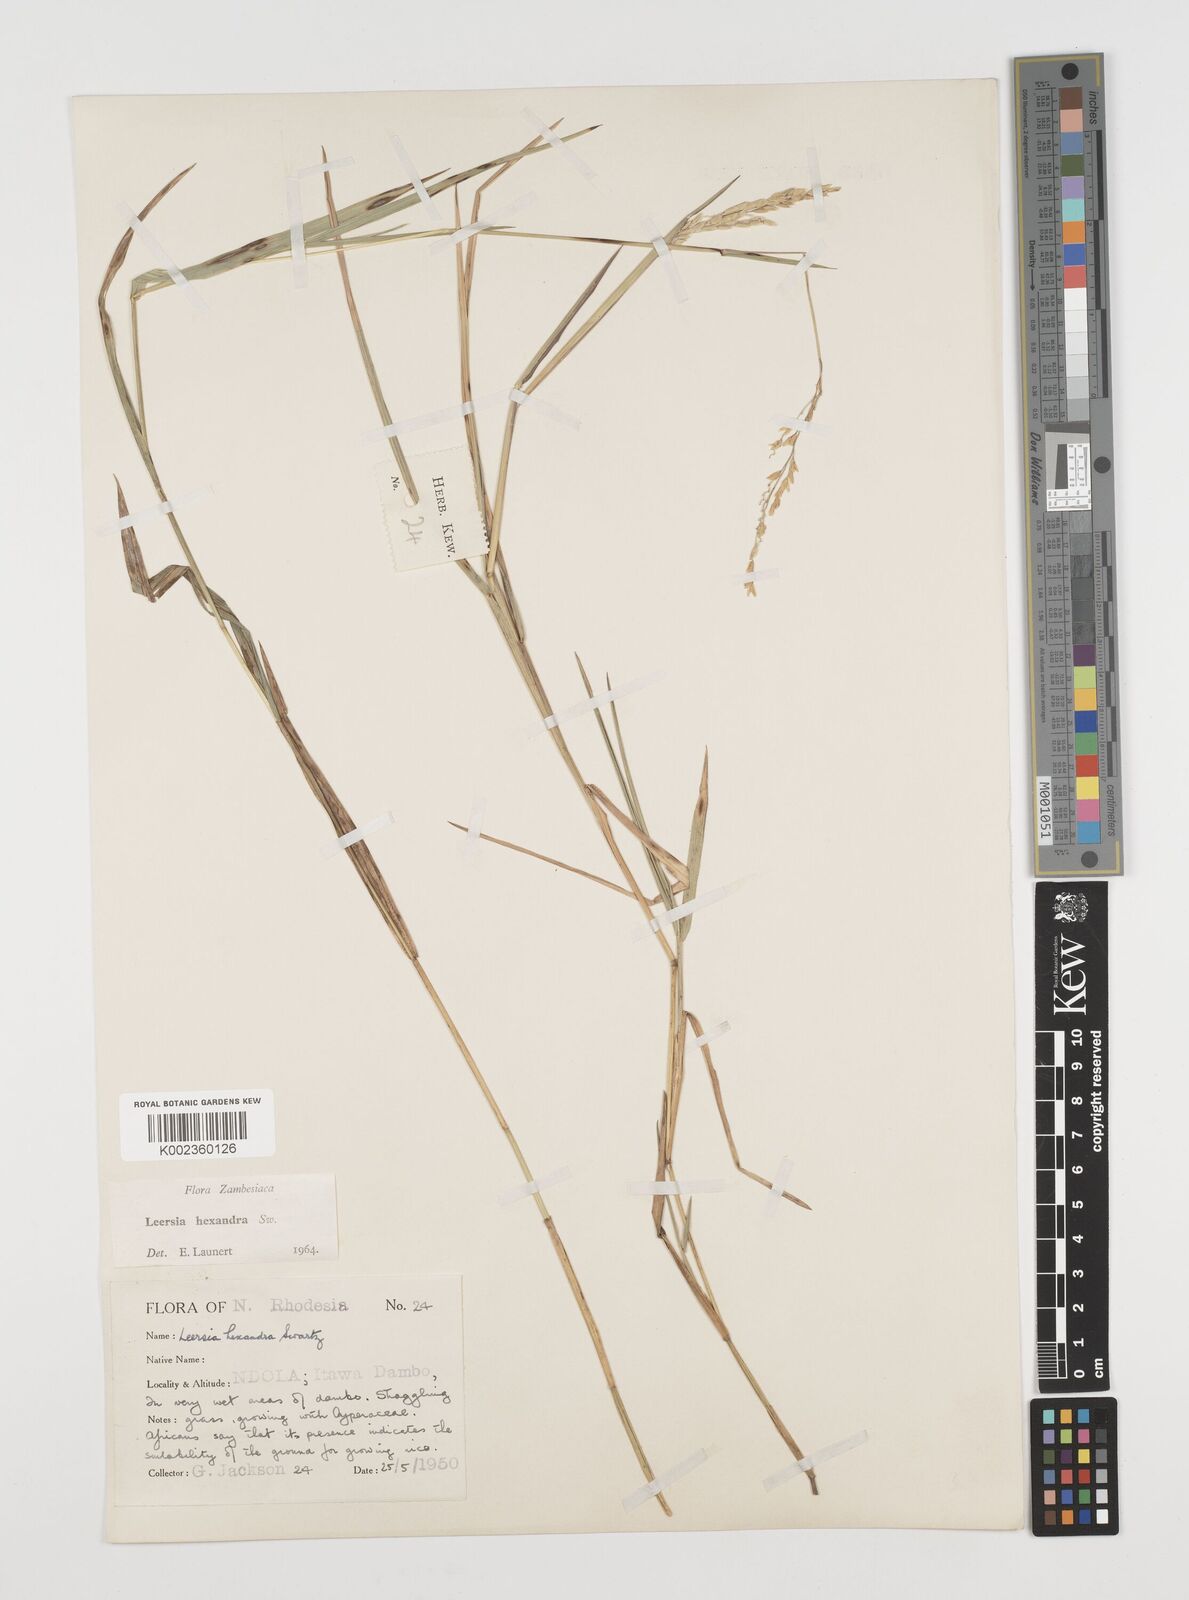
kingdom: Plantae
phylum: Tracheophyta
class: Liliopsida
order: Poales
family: Poaceae
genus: Leersia
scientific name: Leersia hexandra
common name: Southern cut grass
